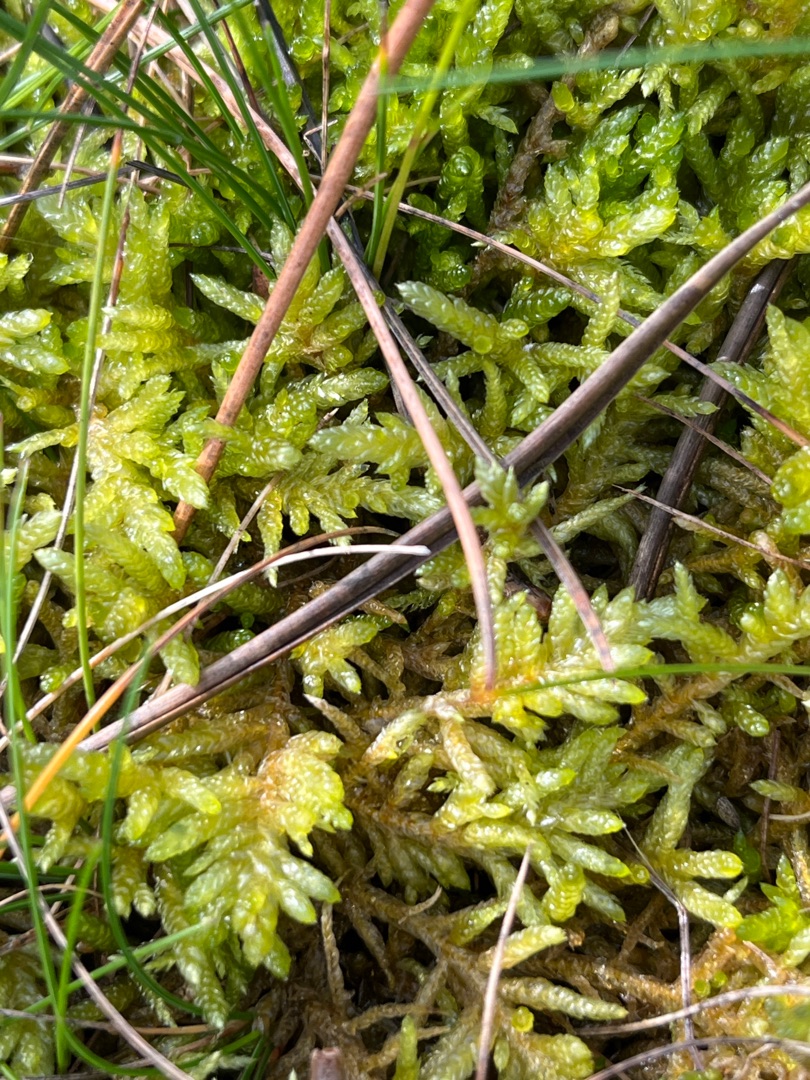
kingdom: Plantae
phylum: Bryophyta
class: Bryopsida
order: Hypnales
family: Brachytheciaceae
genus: Pseudoscleropodium
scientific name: Pseudoscleropodium purum
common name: Hulbladet fedtmos
